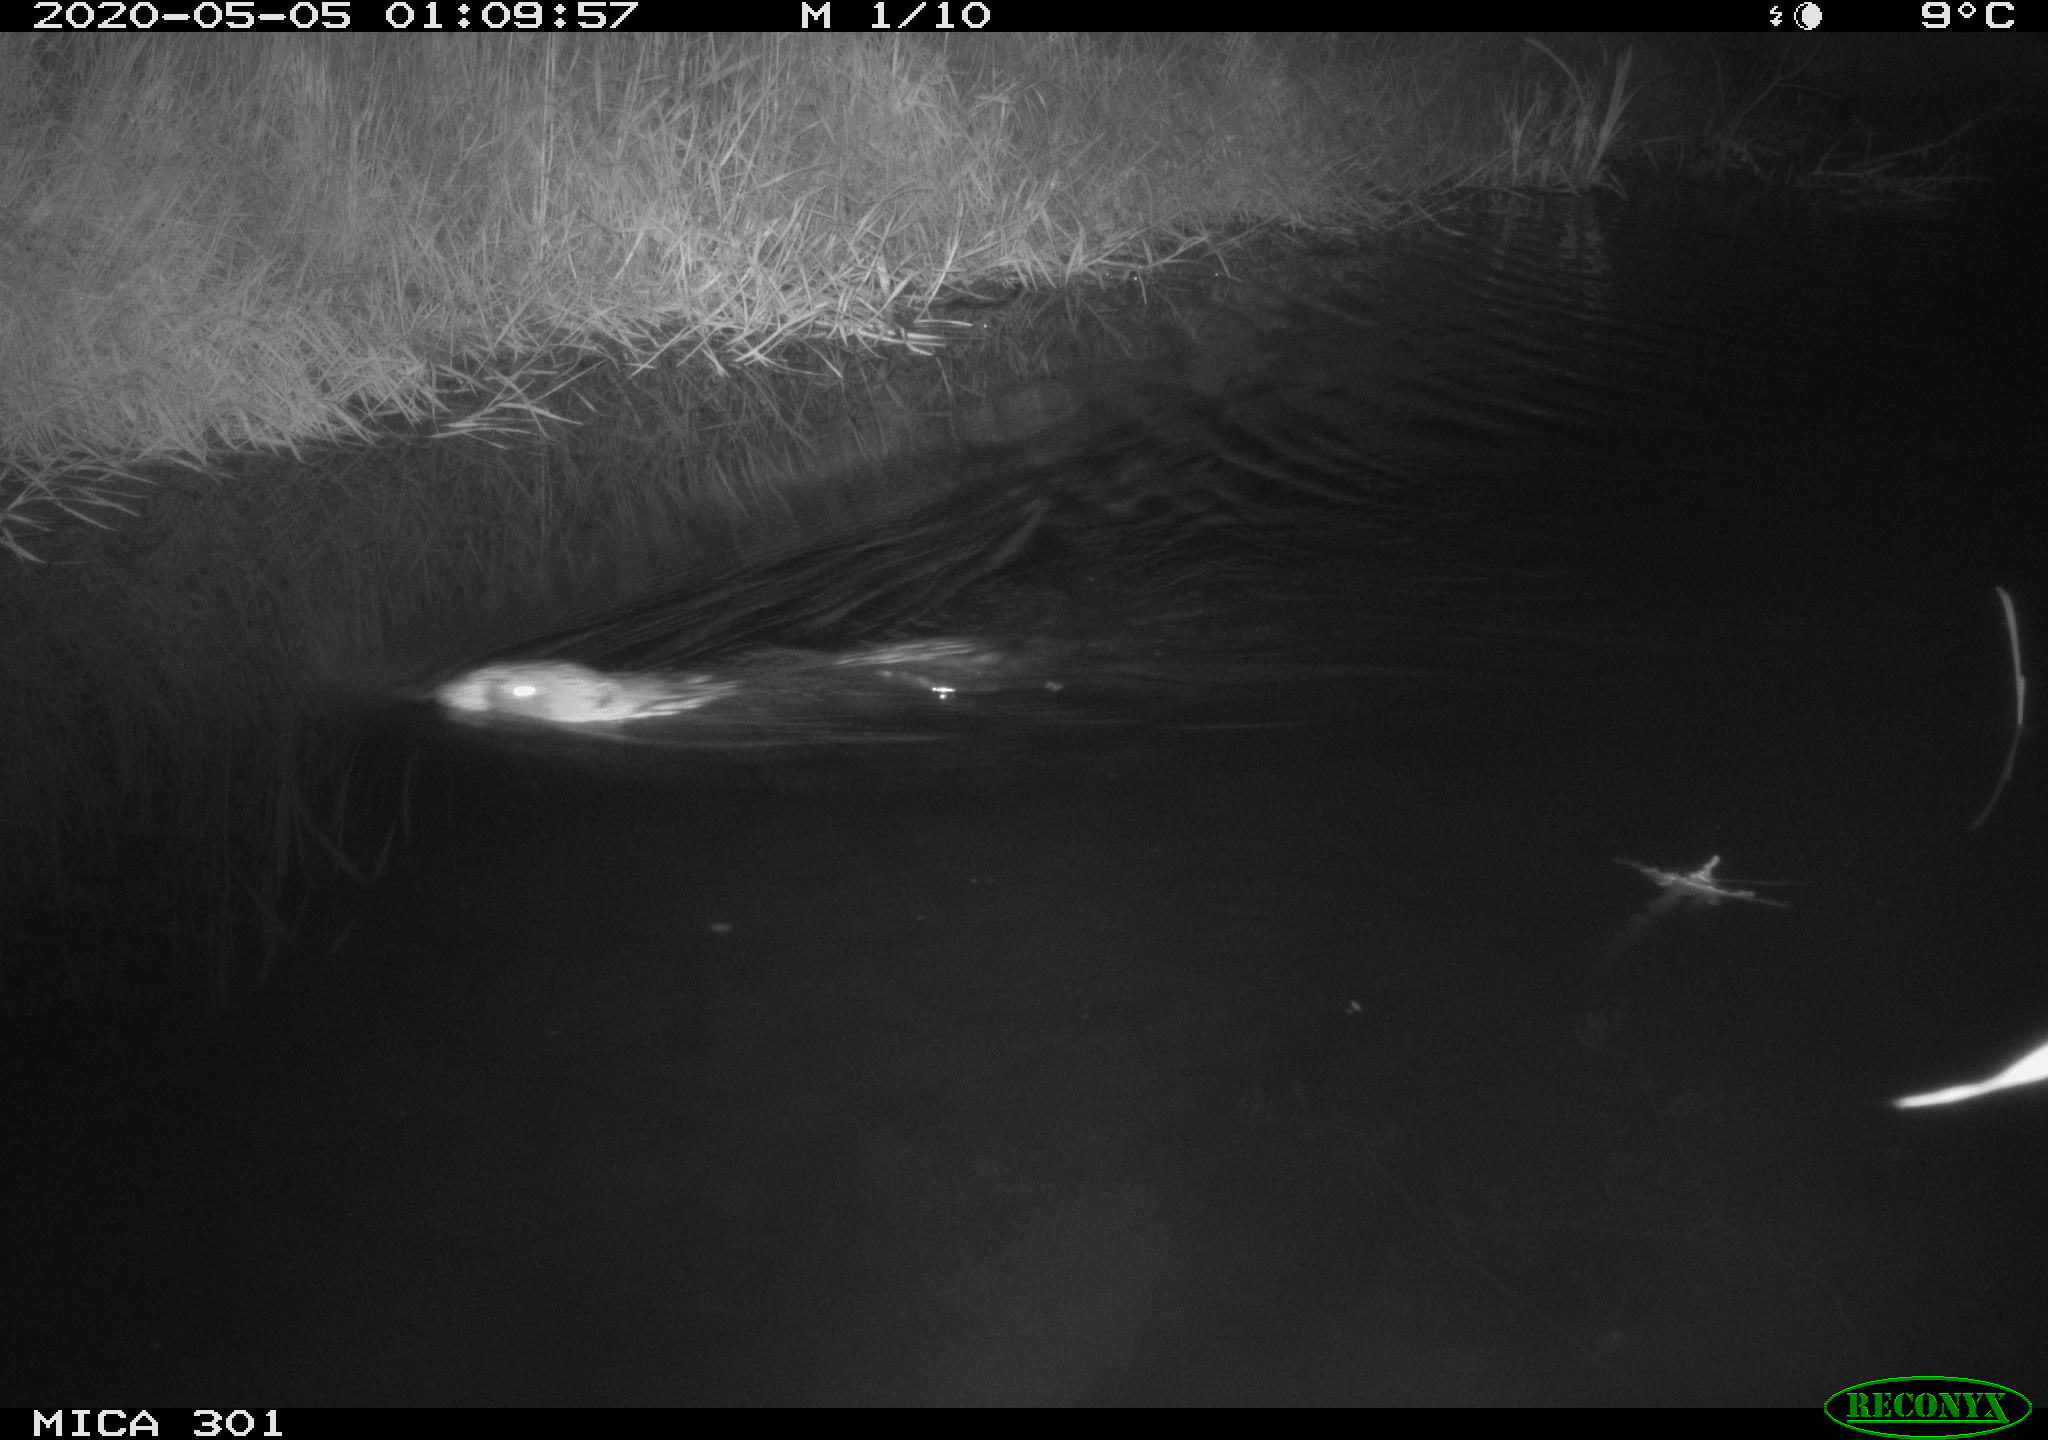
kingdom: Animalia
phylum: Chordata
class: Mammalia
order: Rodentia
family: Castoridae
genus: Castor
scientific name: Castor fiber
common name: Eurasian beaver
